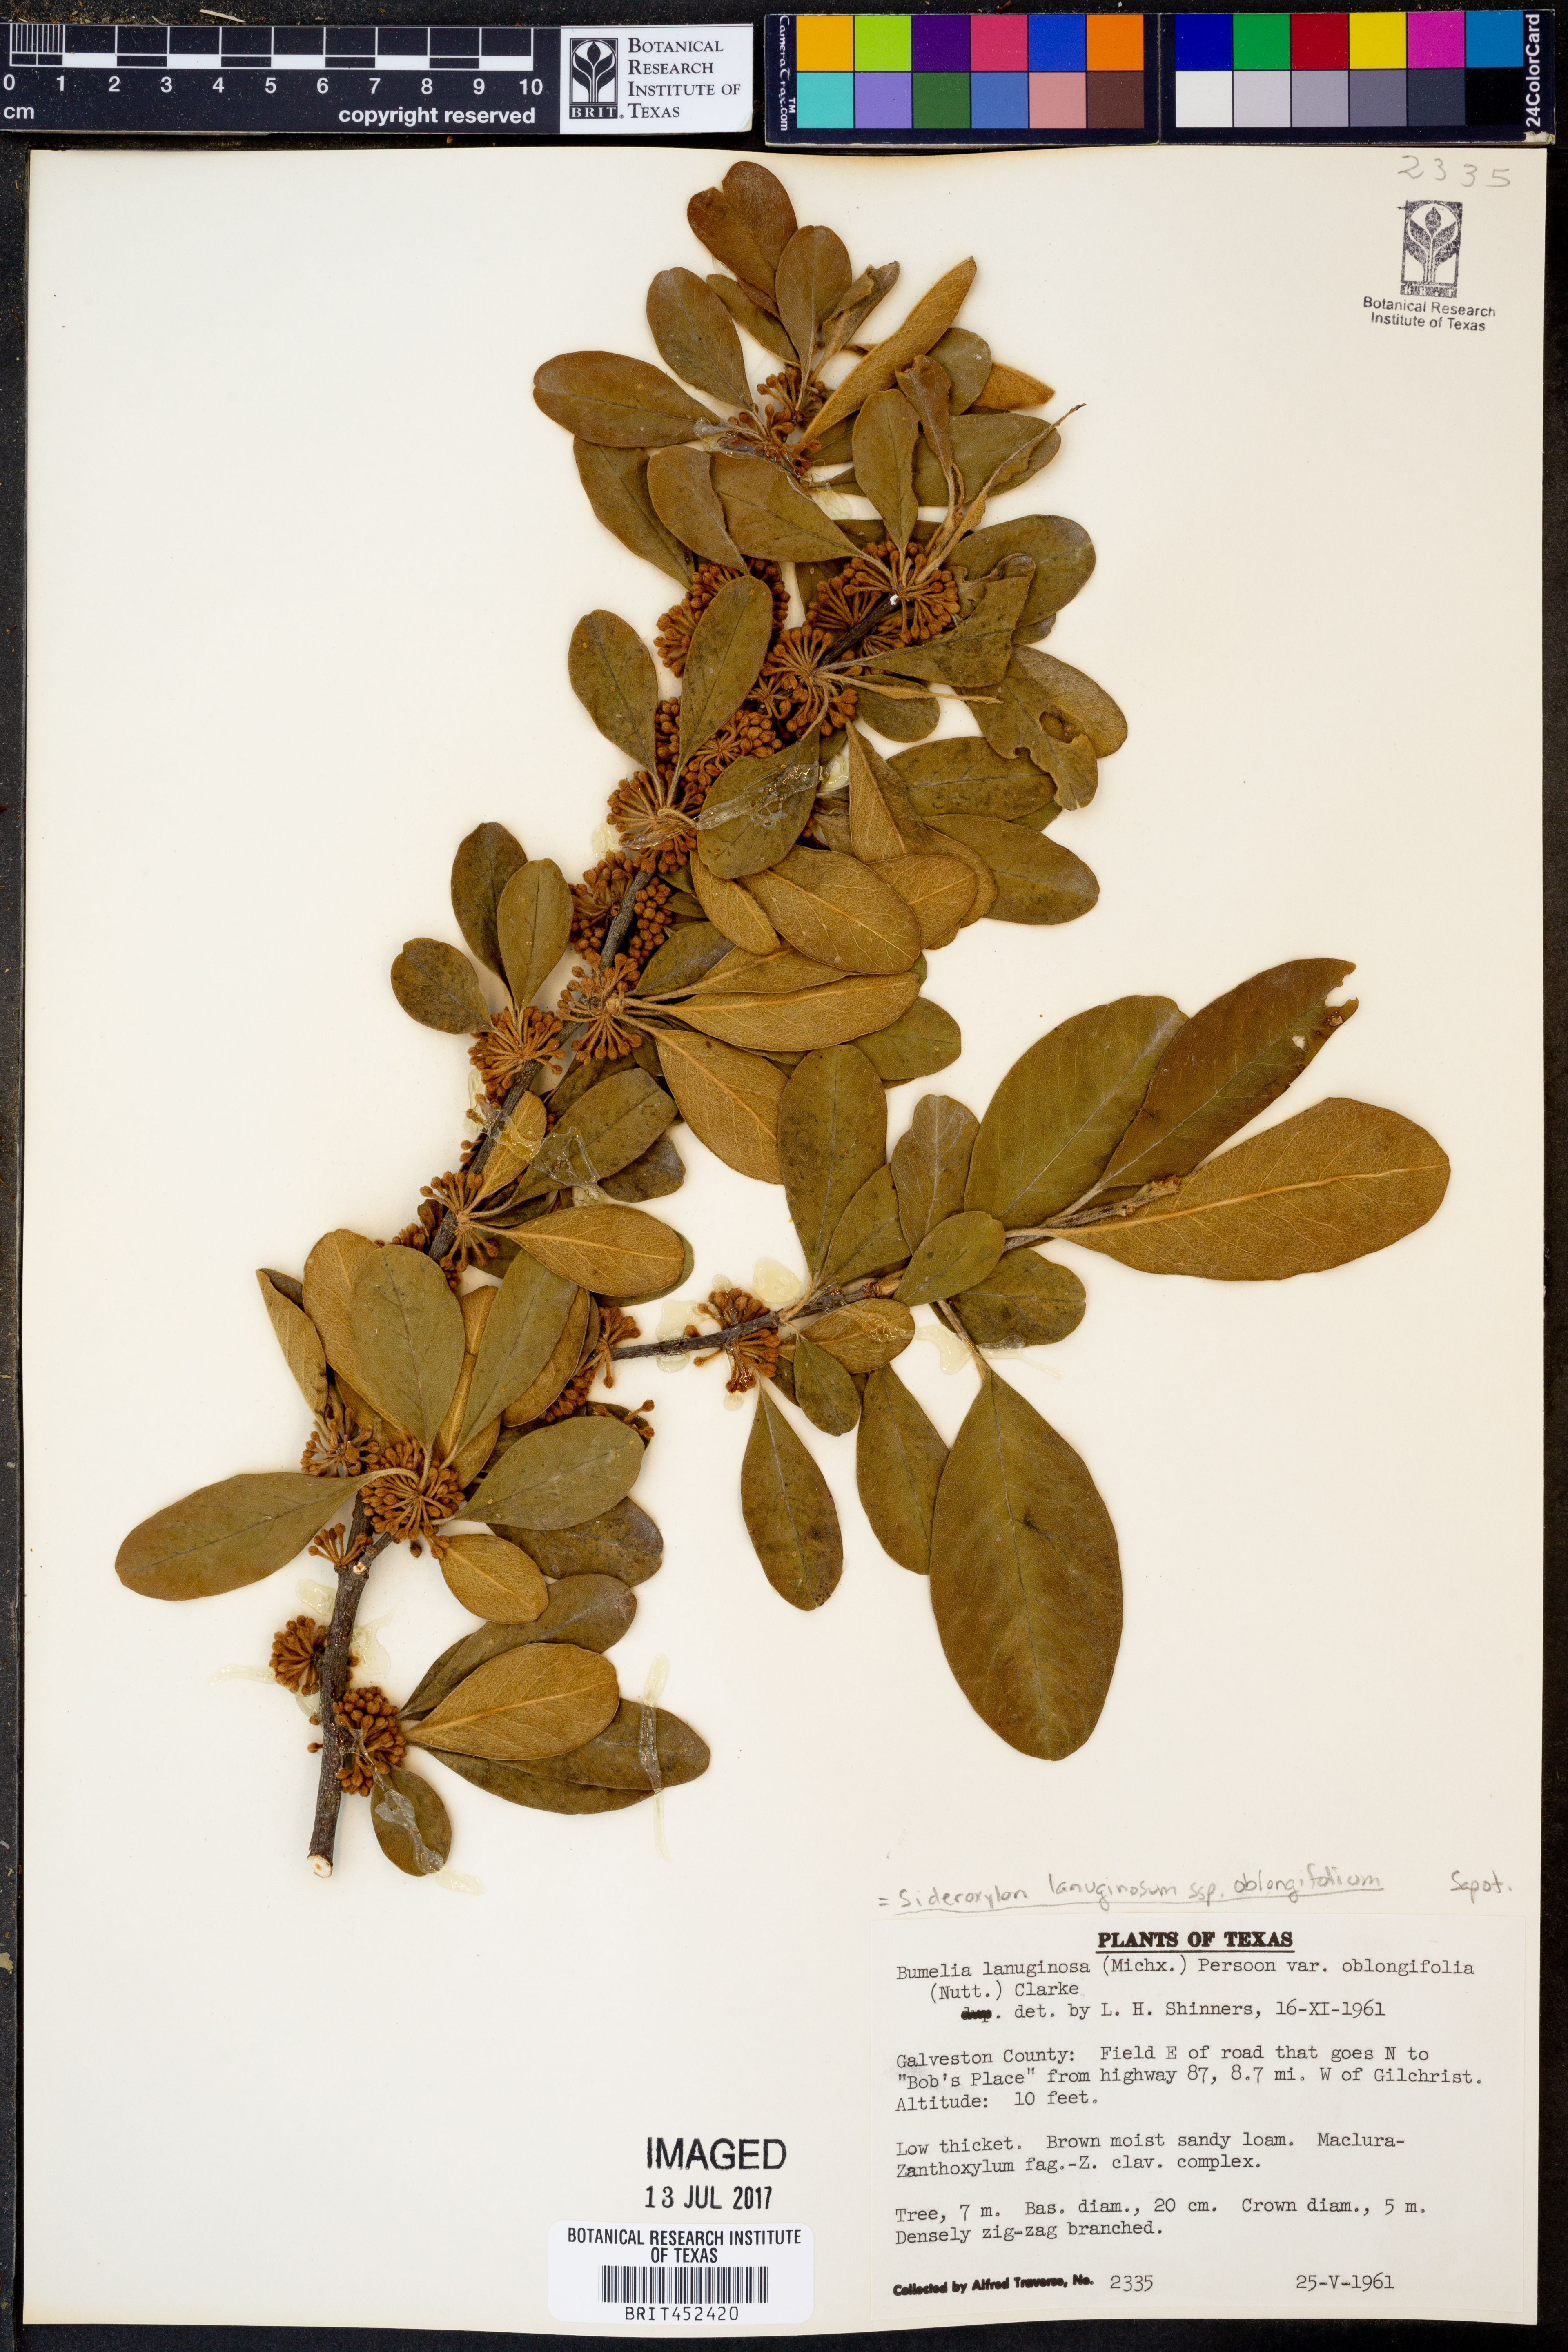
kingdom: Plantae
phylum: Tracheophyta
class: Magnoliopsida
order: Ericales
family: Sapotaceae
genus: Sideroxylon
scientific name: Sideroxylon lanuginosum
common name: Chittamwood
